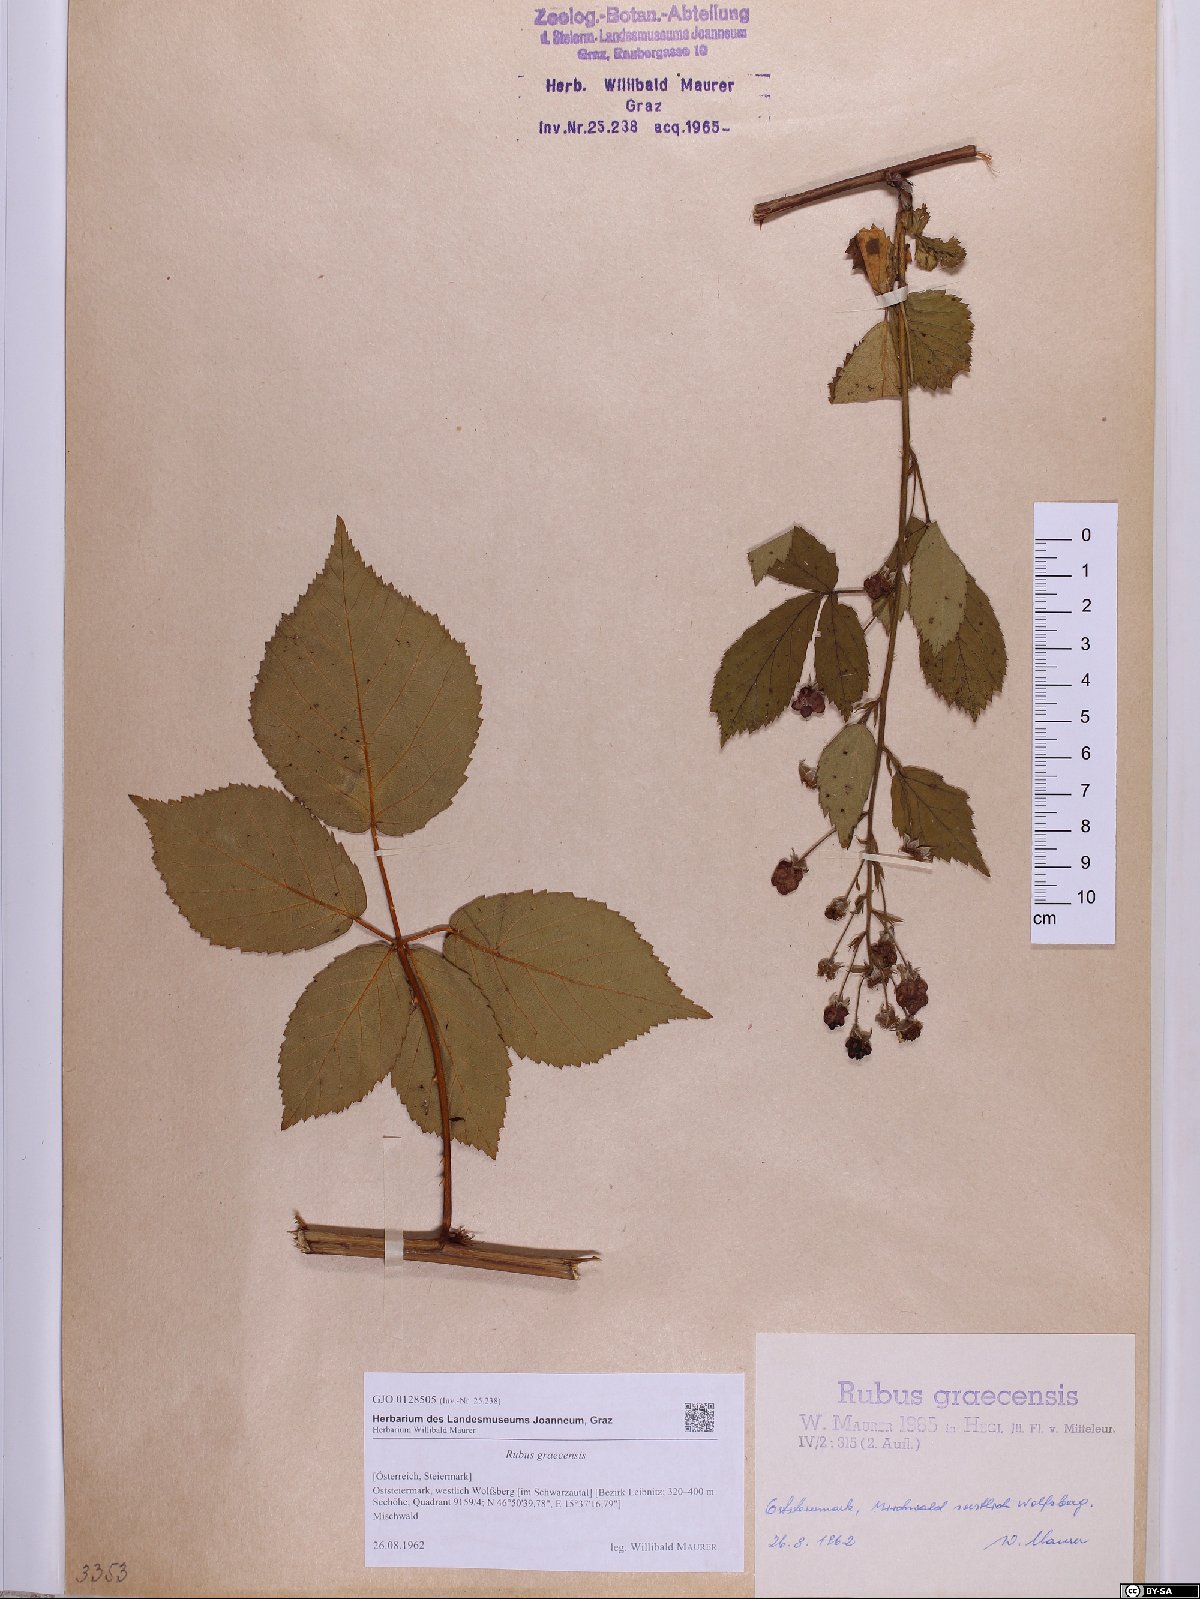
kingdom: Plantae
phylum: Tracheophyta
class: Magnoliopsida
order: Rosales
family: Rosaceae
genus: Rubus
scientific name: Rubus graecensis
